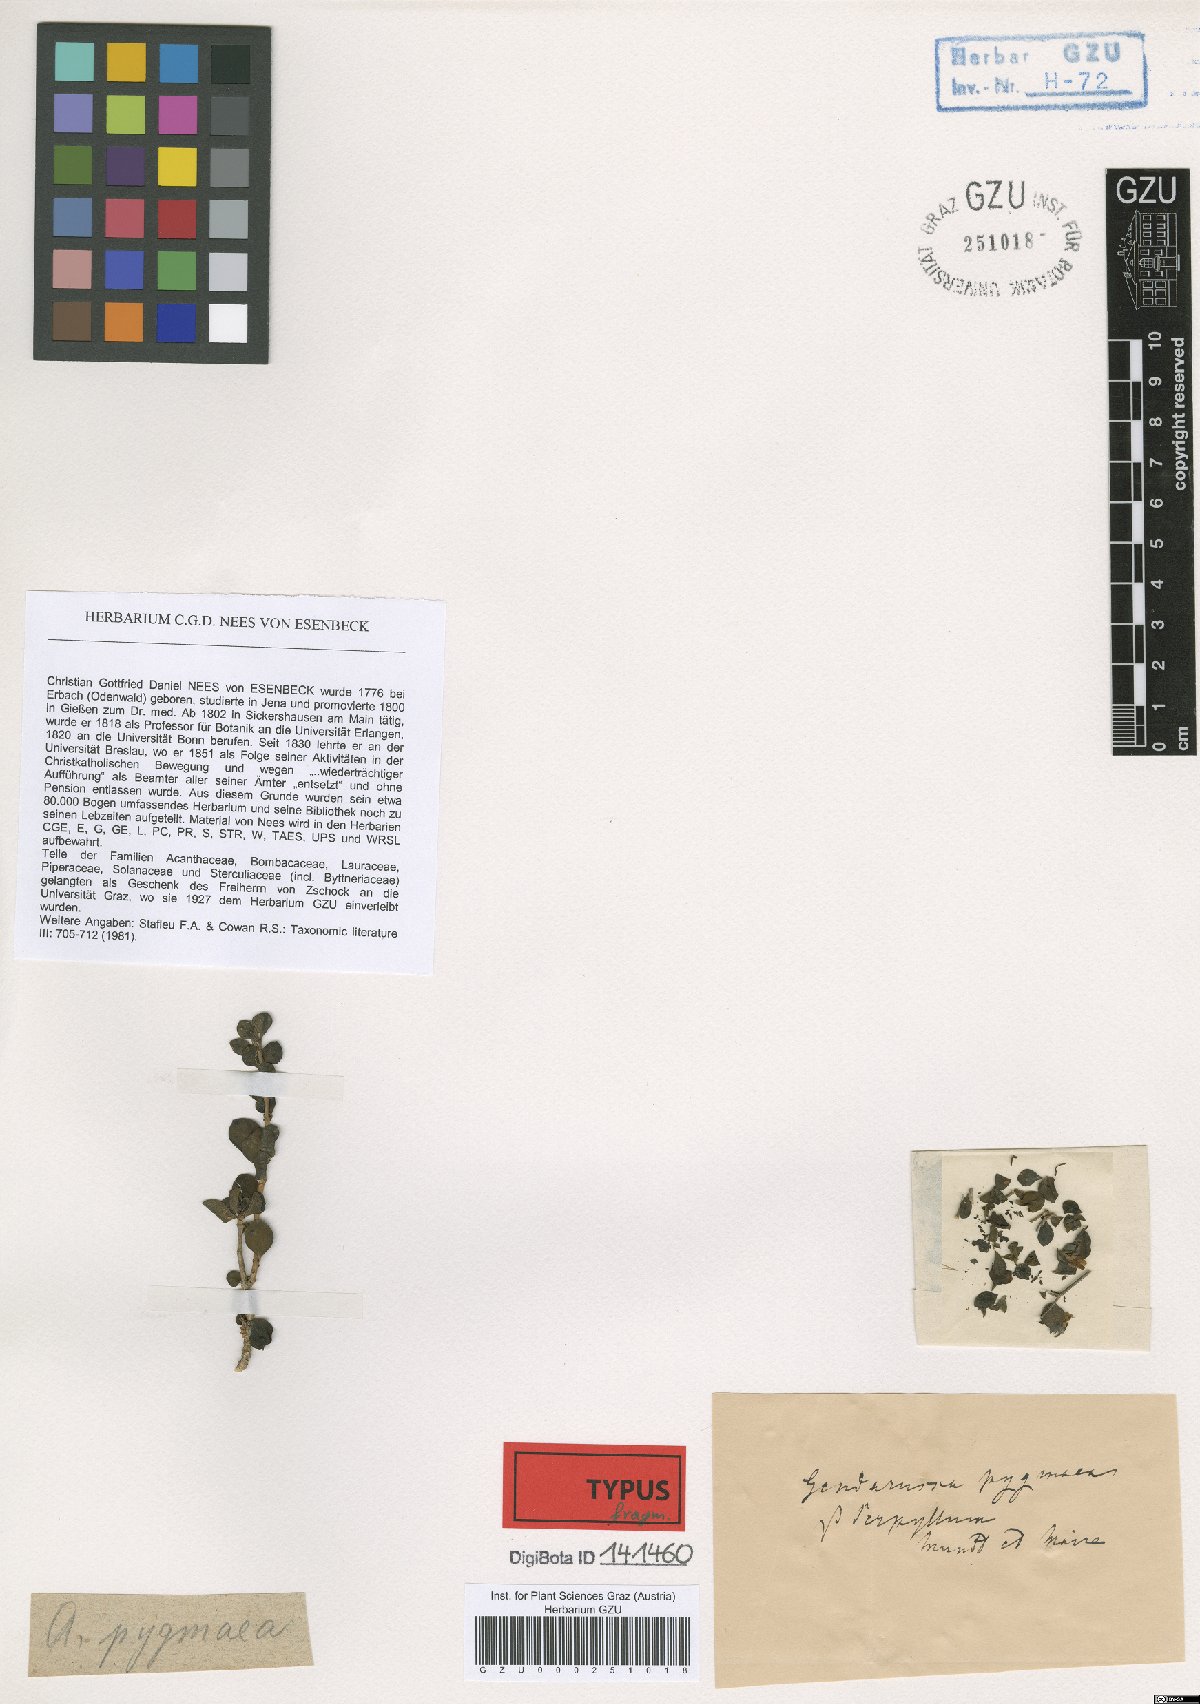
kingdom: Plantae
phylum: Tracheophyta
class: Magnoliopsida
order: Lamiales
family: Acanthaceae
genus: Justicia
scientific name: Justicia orchioides
